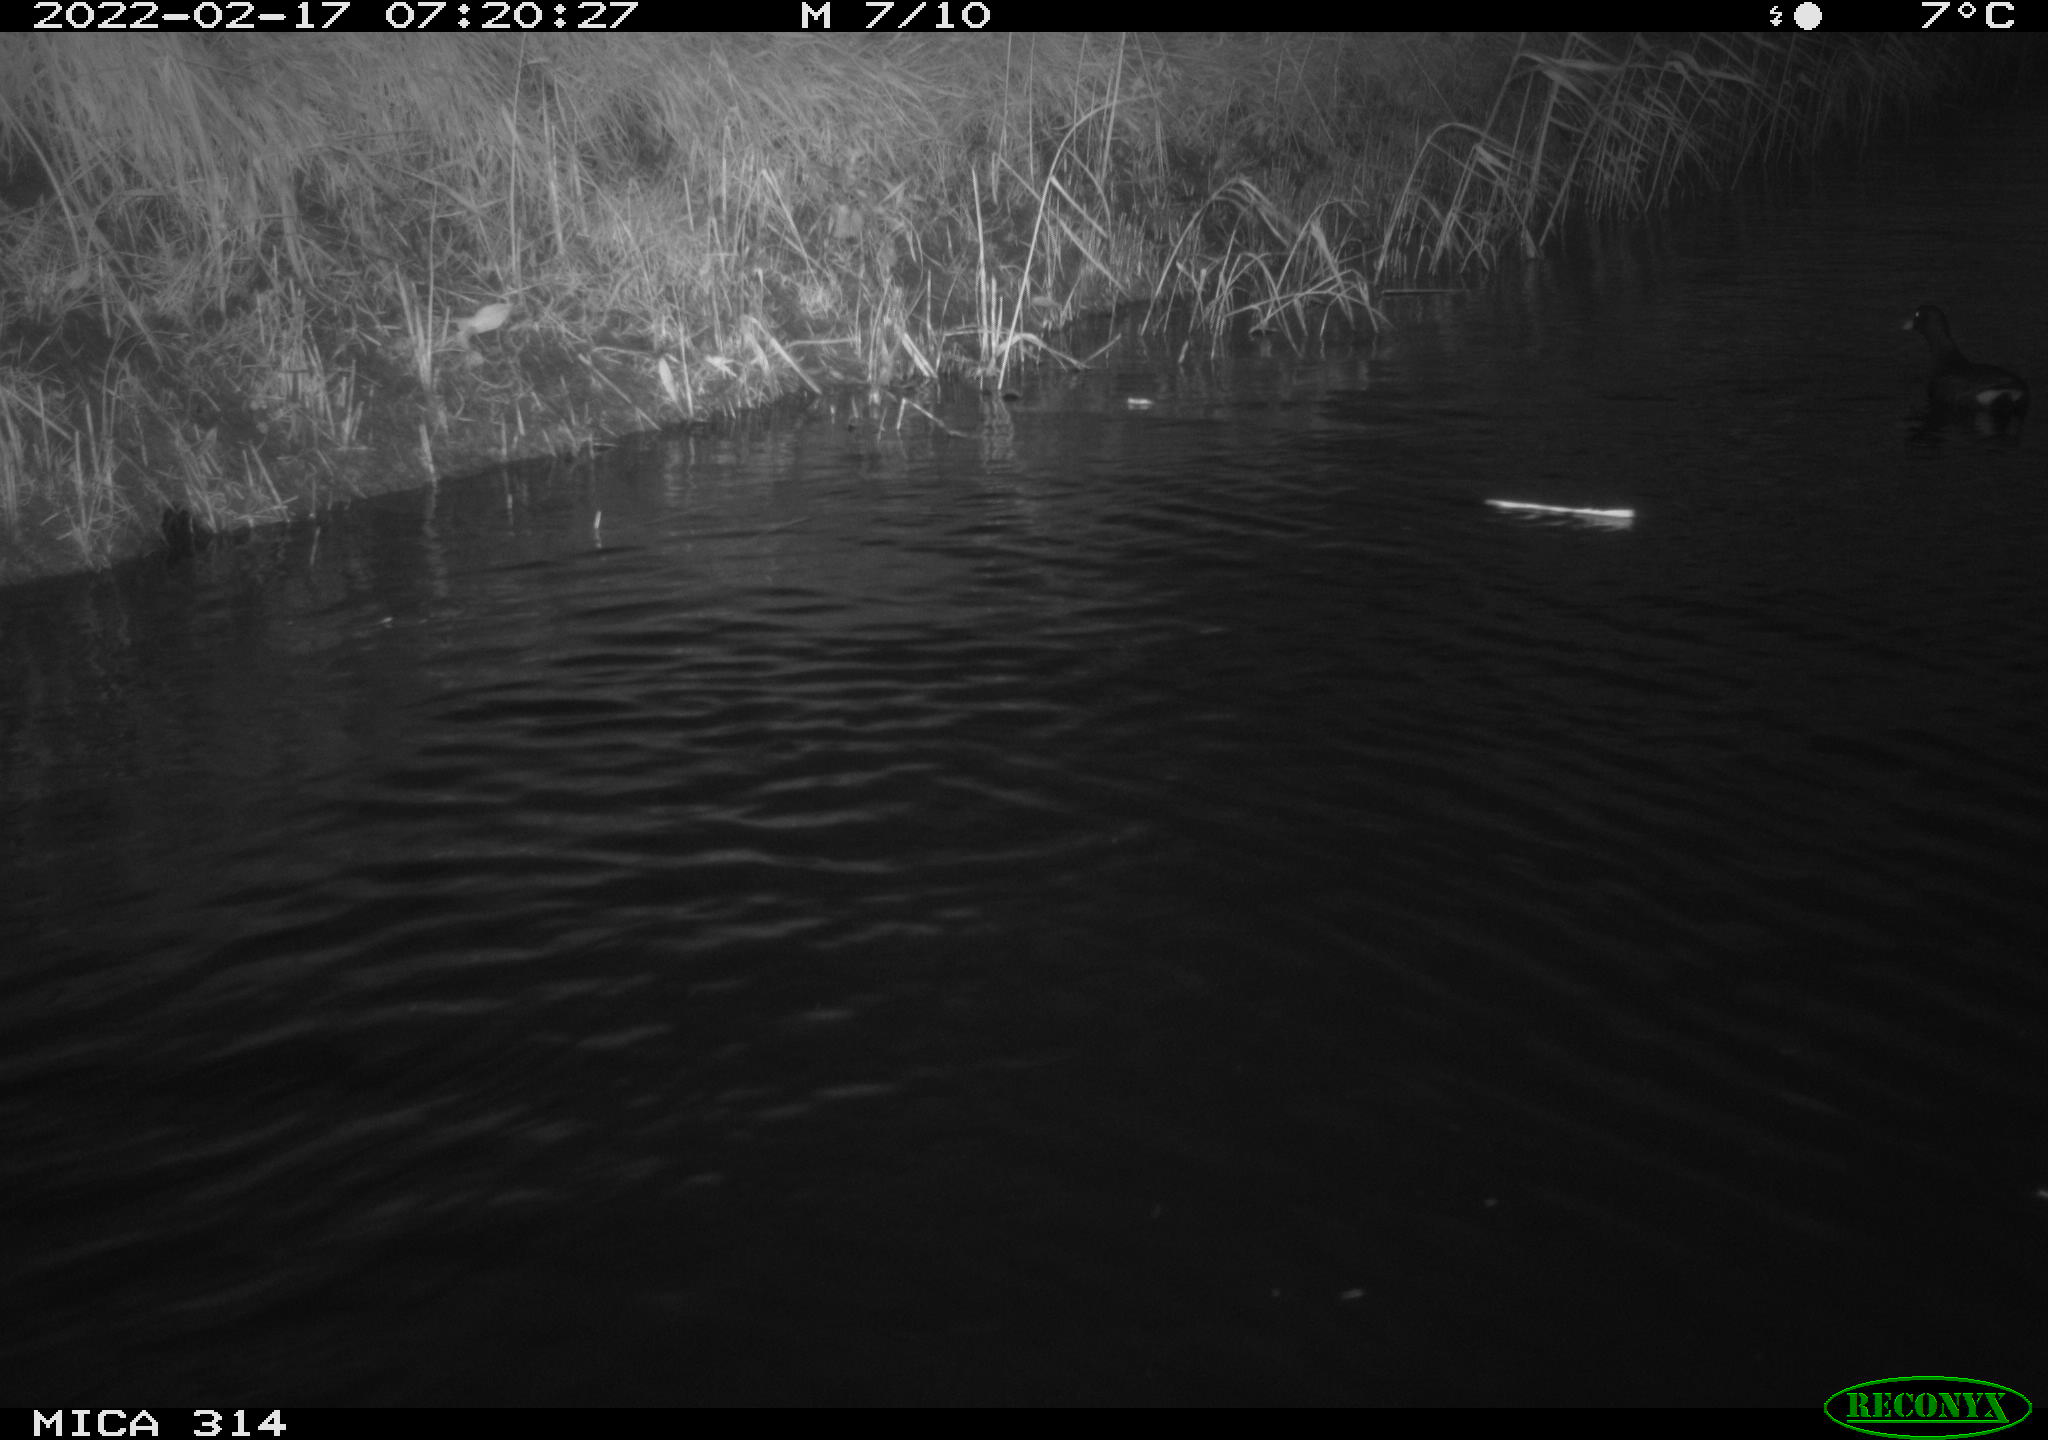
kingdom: Animalia
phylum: Chordata
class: Aves
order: Gruiformes
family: Rallidae
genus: Gallinula
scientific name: Gallinula chloropus
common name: Common moorhen
